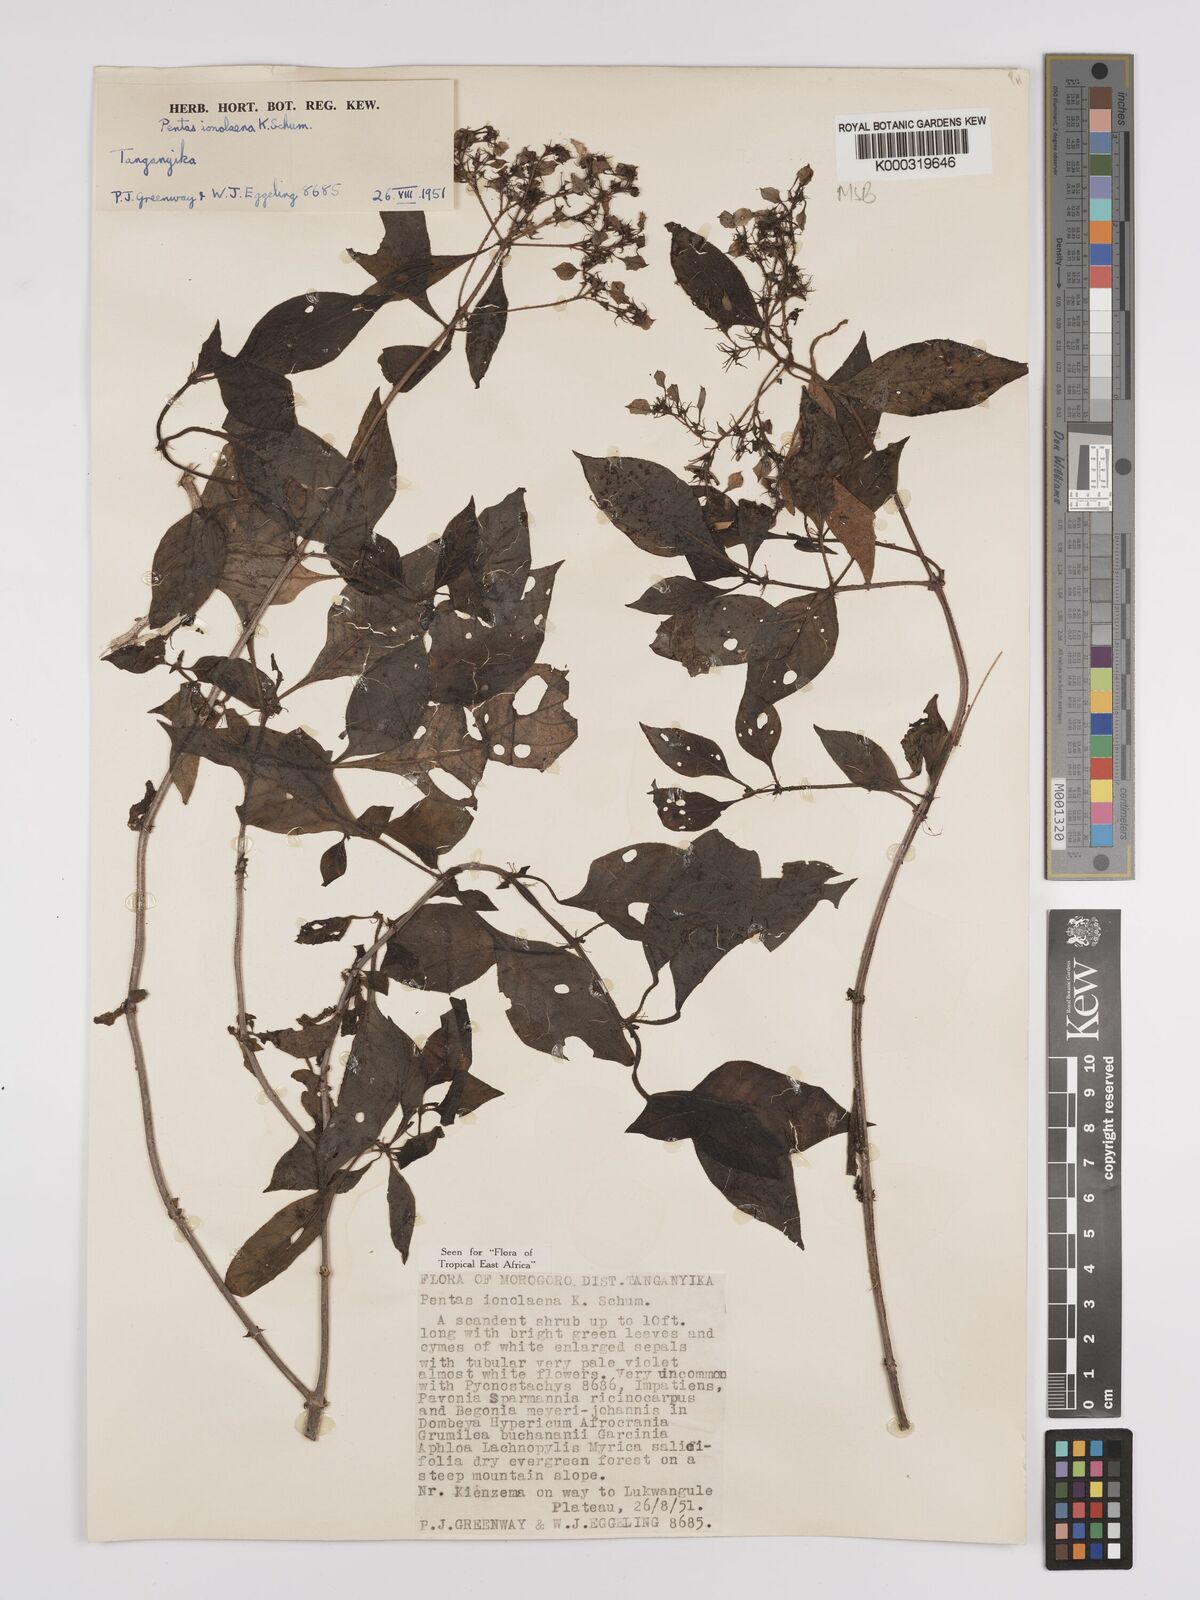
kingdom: Plantae
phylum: Tracheophyta
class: Magnoliopsida
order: Gentianales
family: Rubiaceae
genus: Phyllopentas
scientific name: Phyllopentas ionolaena
